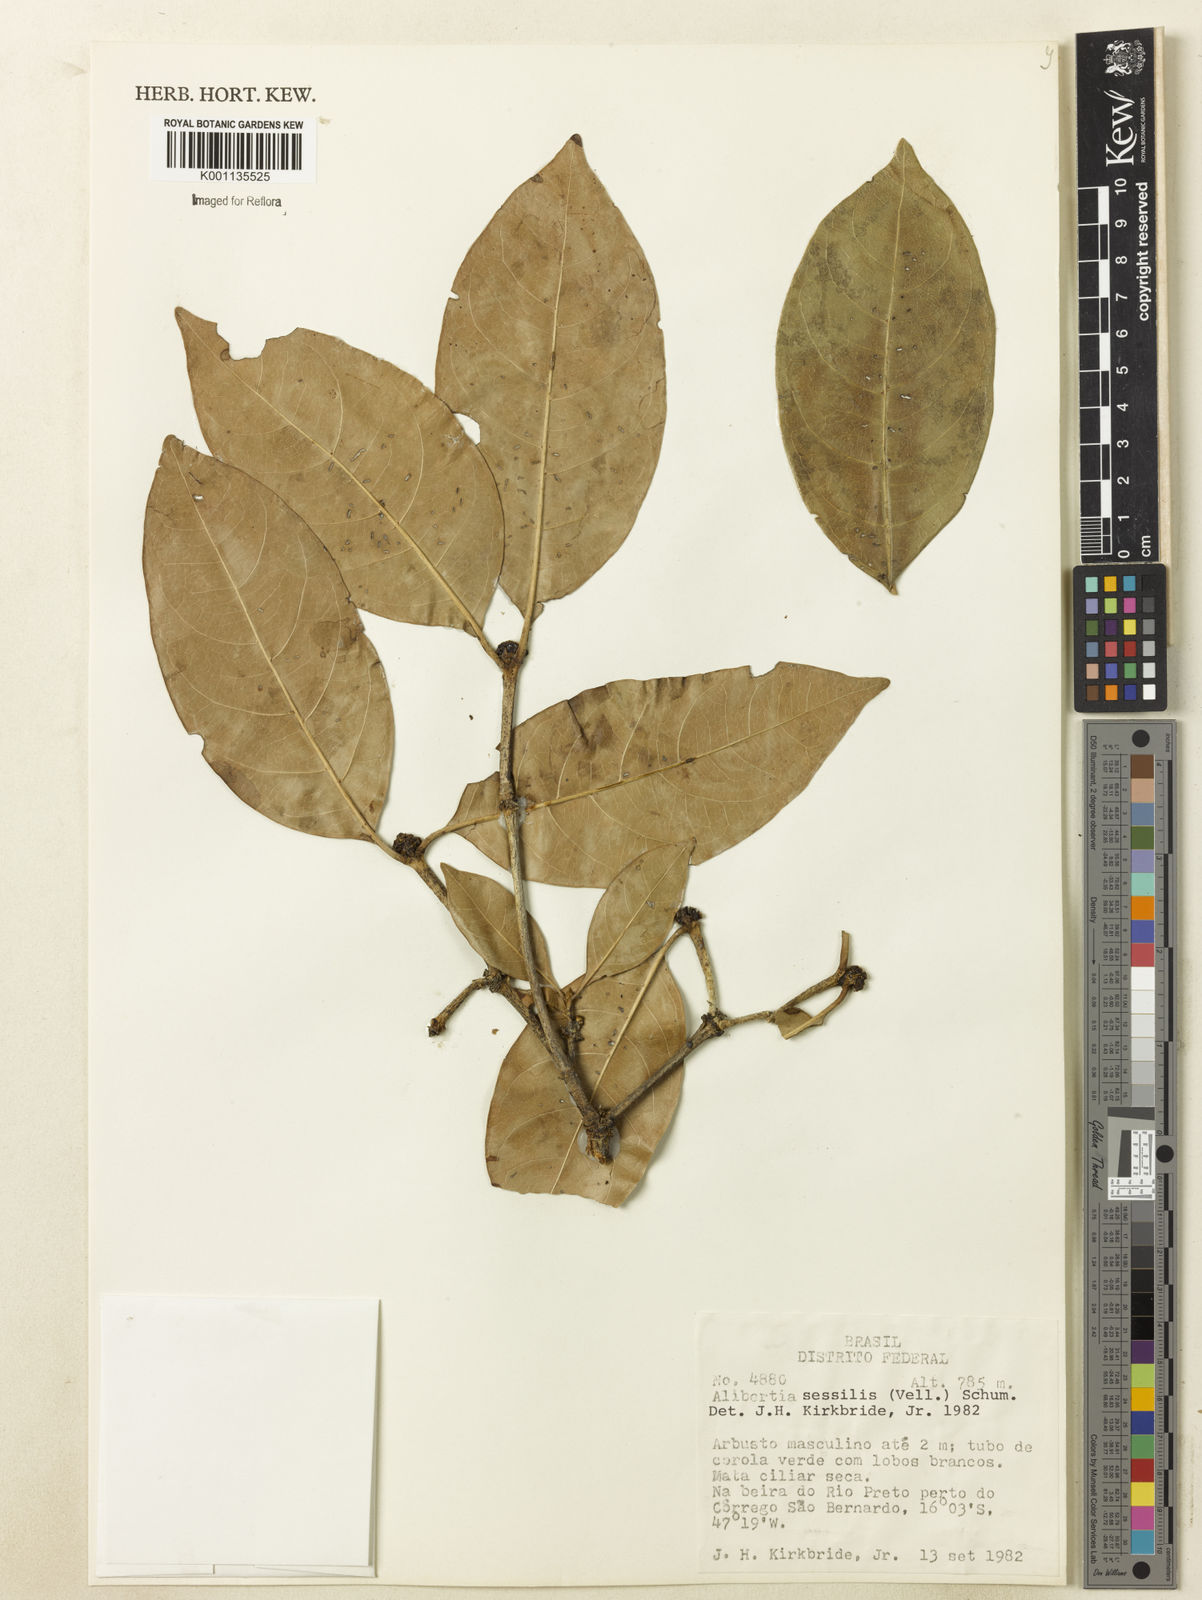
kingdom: Plantae
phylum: Tracheophyta
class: Magnoliopsida
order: Gentianales
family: Rubiaceae
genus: Cordiera
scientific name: Cordiera sessilis
